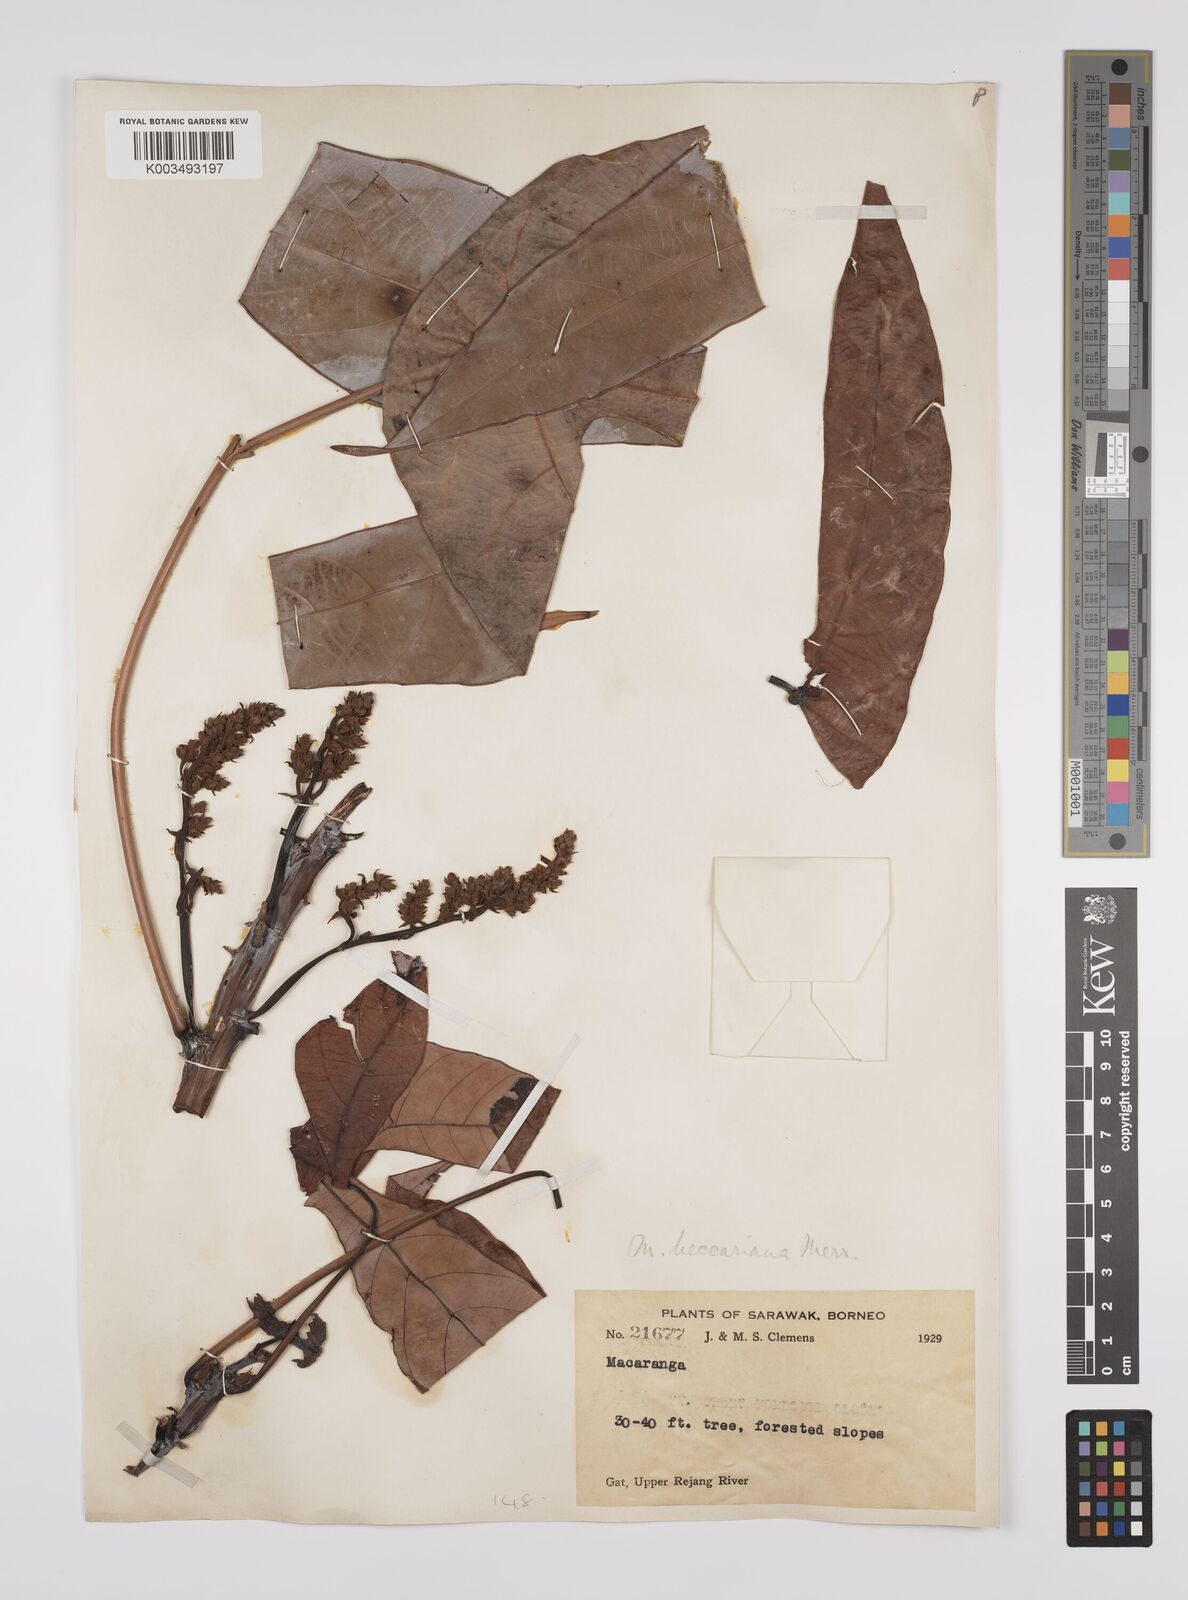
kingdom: Plantae
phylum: Tracheophyta
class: Magnoliopsida
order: Malpighiales
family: Euphorbiaceae
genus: Macaranga
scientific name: Macaranga beccariana
